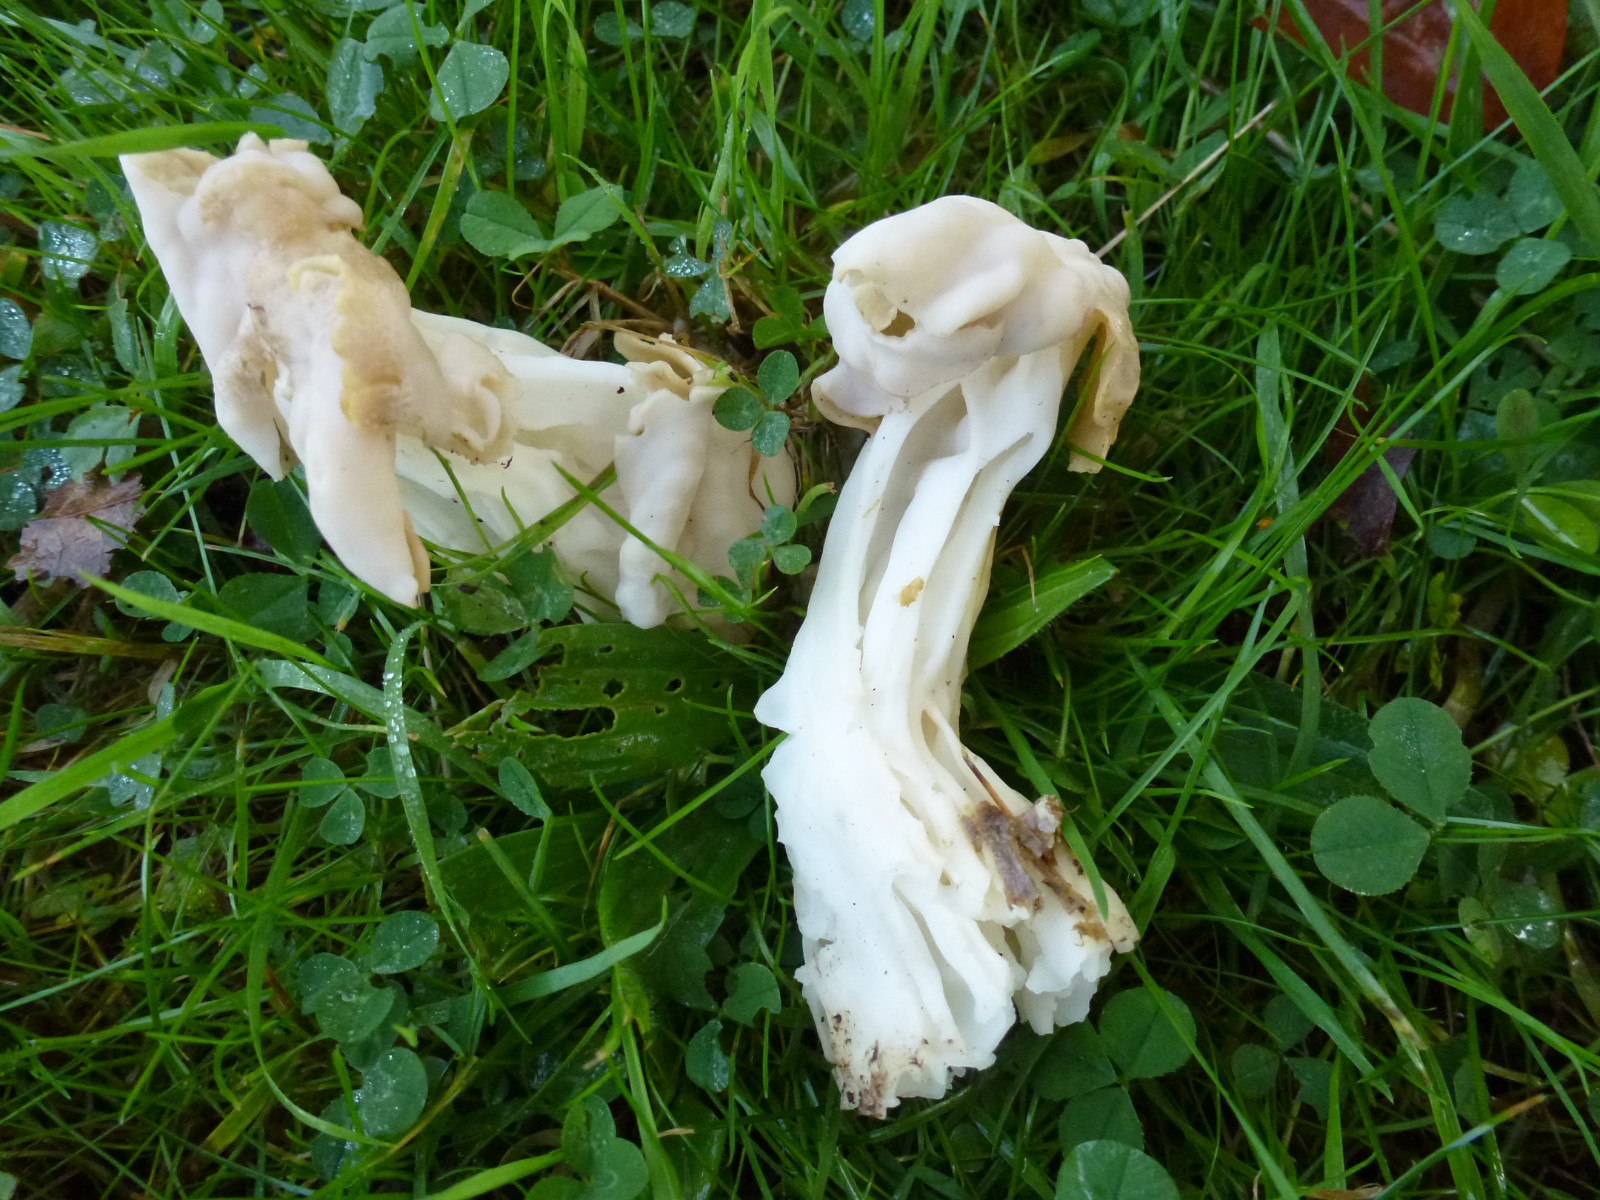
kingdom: Fungi
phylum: Ascomycota
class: Pezizomycetes
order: Pezizales
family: Helvellaceae
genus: Helvella
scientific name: Helvella crispa
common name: kruset foldhat
